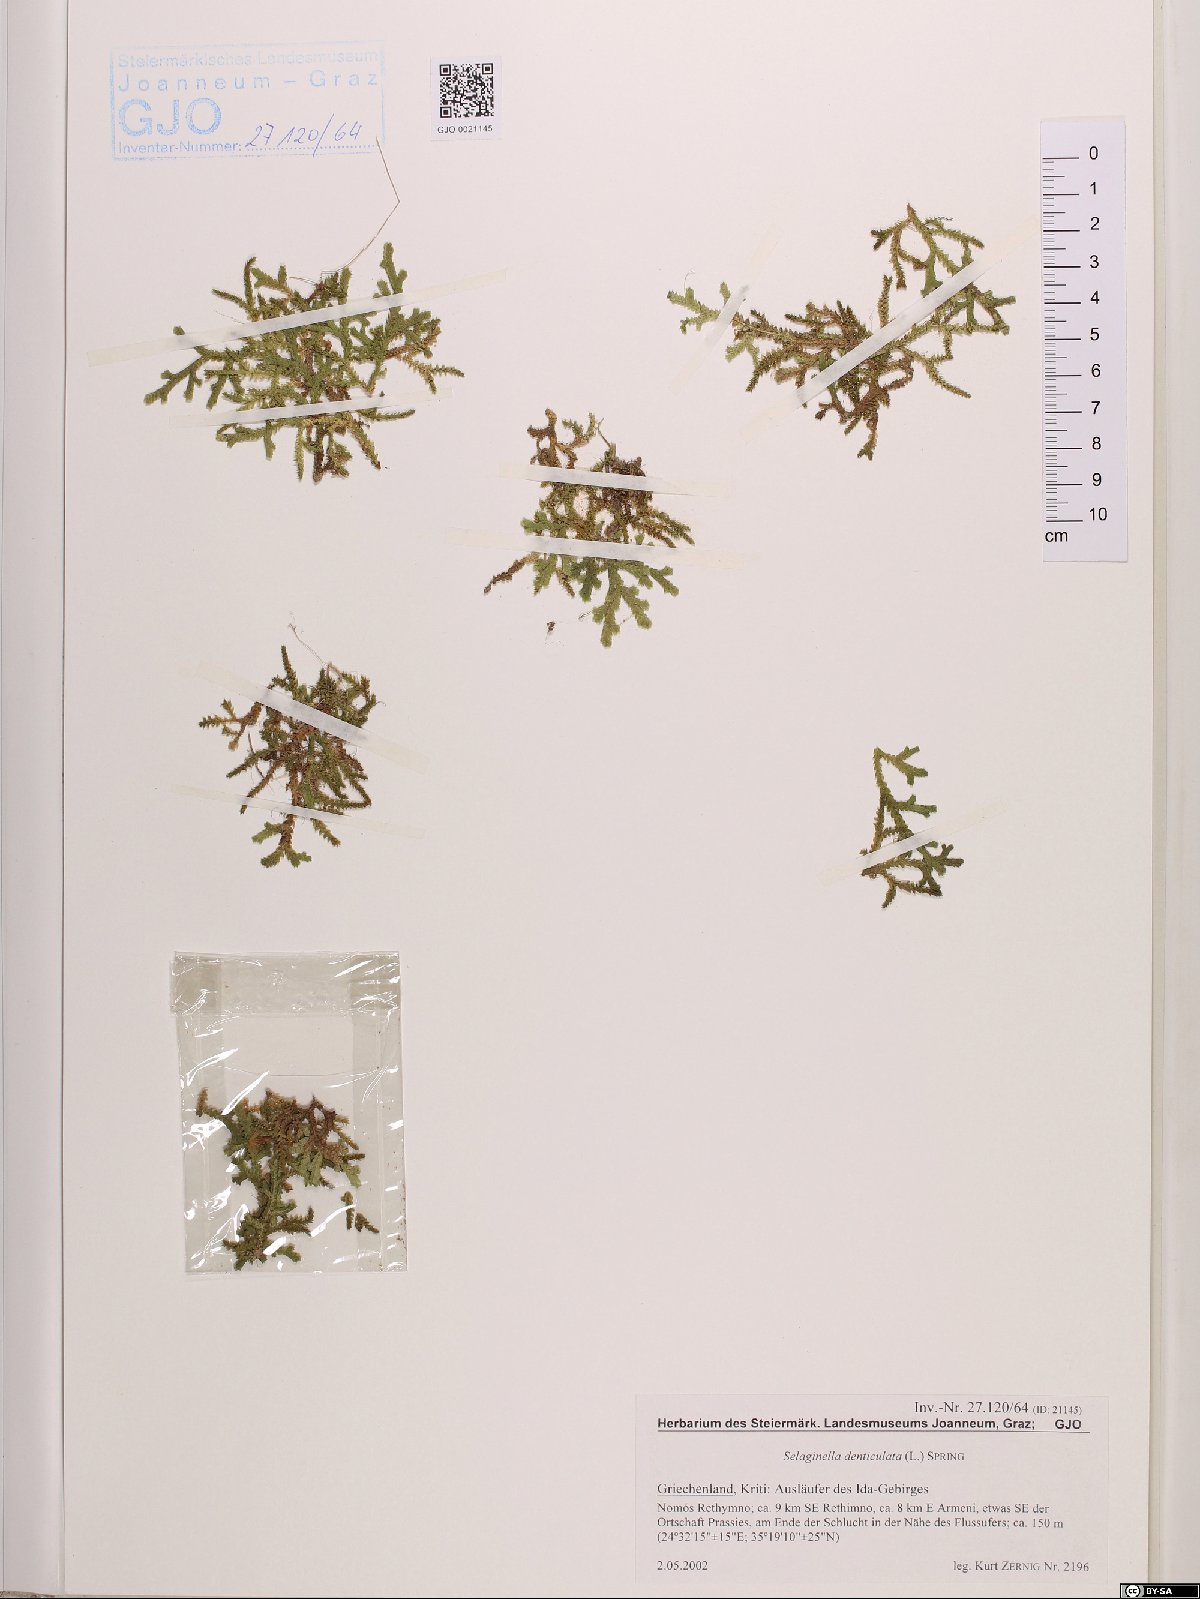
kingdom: Plantae
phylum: Tracheophyta
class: Lycopodiopsida
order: Selaginellales
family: Selaginellaceae
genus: Selaginella
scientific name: Selaginella denticulata
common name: Toothed-leaved clubmoss
